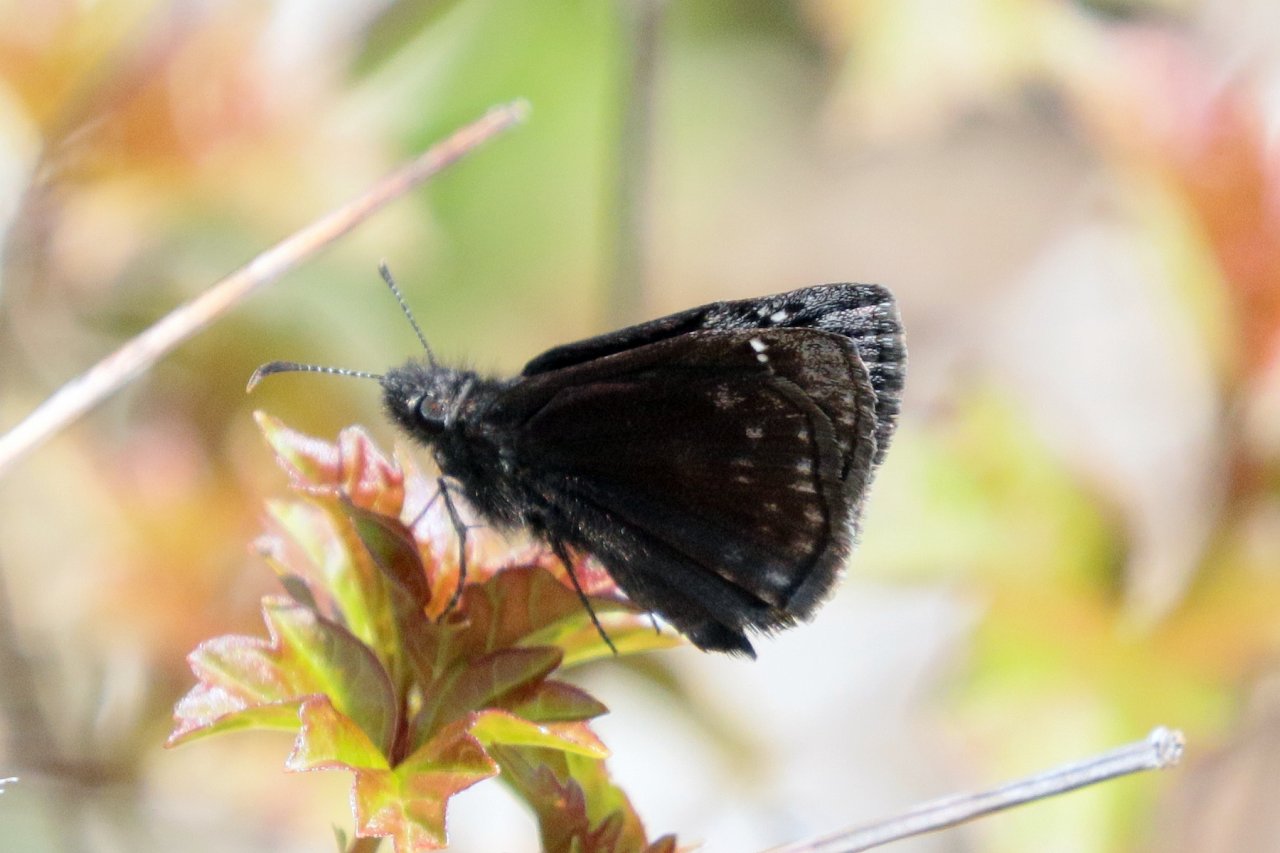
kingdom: Animalia
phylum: Arthropoda
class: Insecta
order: Lepidoptera
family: Hesperiidae
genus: Gesta
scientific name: Gesta
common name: Wild Indigo Duskywing
